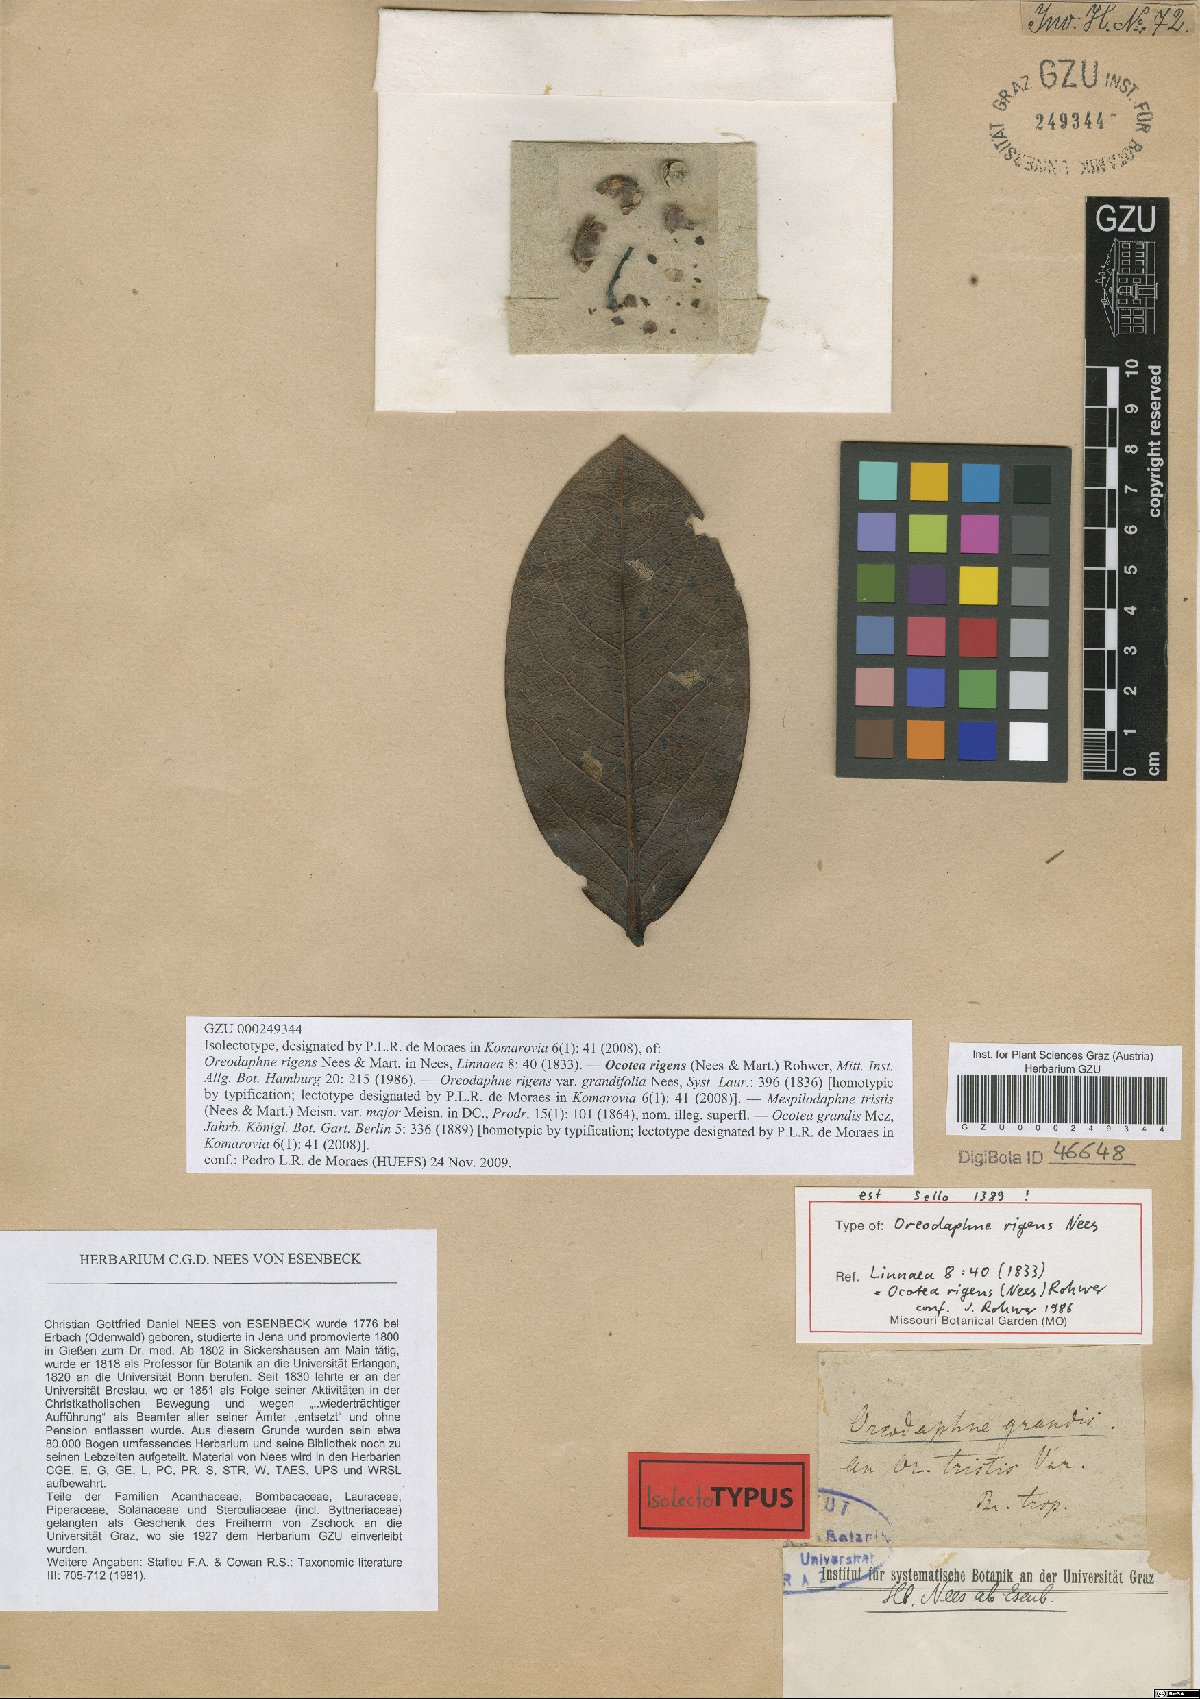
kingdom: Plantae
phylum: Tracheophyta
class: Magnoliopsida
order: Laurales
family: Lauraceae
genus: Mespilodaphne
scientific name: Mespilodaphne tristis
